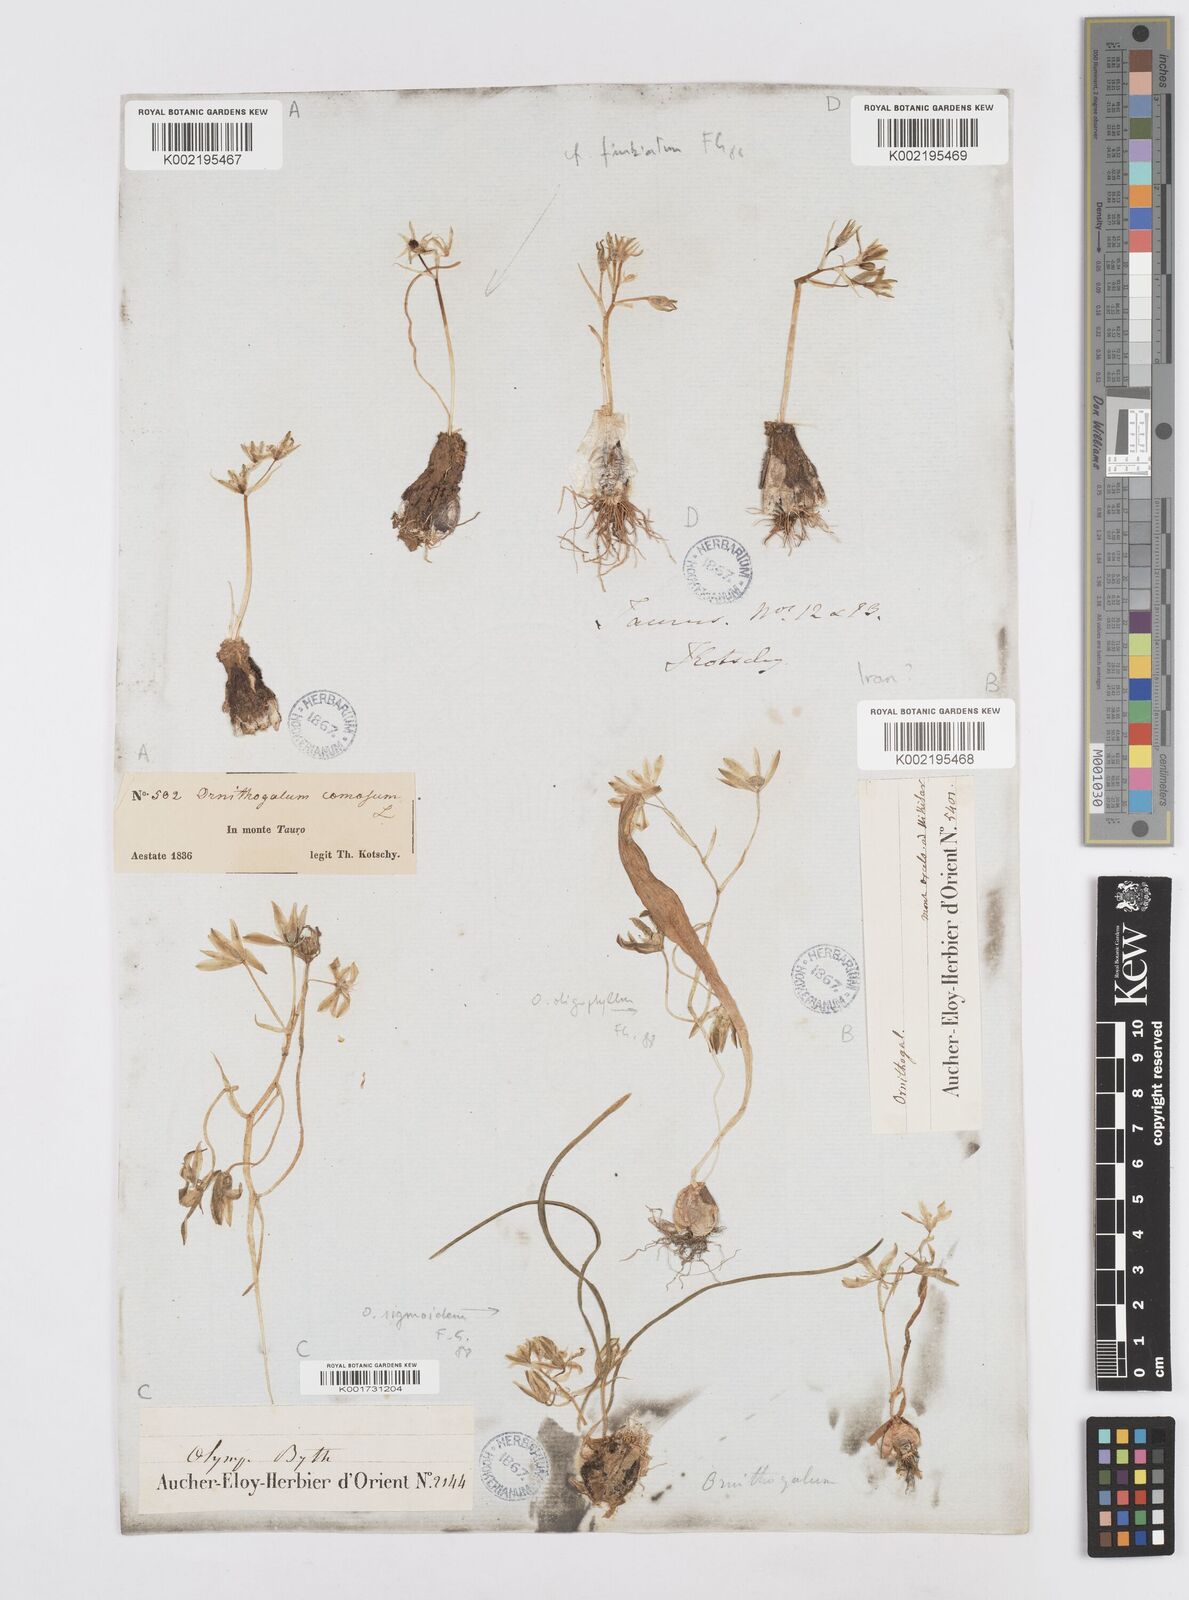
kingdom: Plantae
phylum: Tracheophyta
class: Liliopsida
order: Asparagales
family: Asparagaceae
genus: Ornithogalum
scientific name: Ornithogalum
